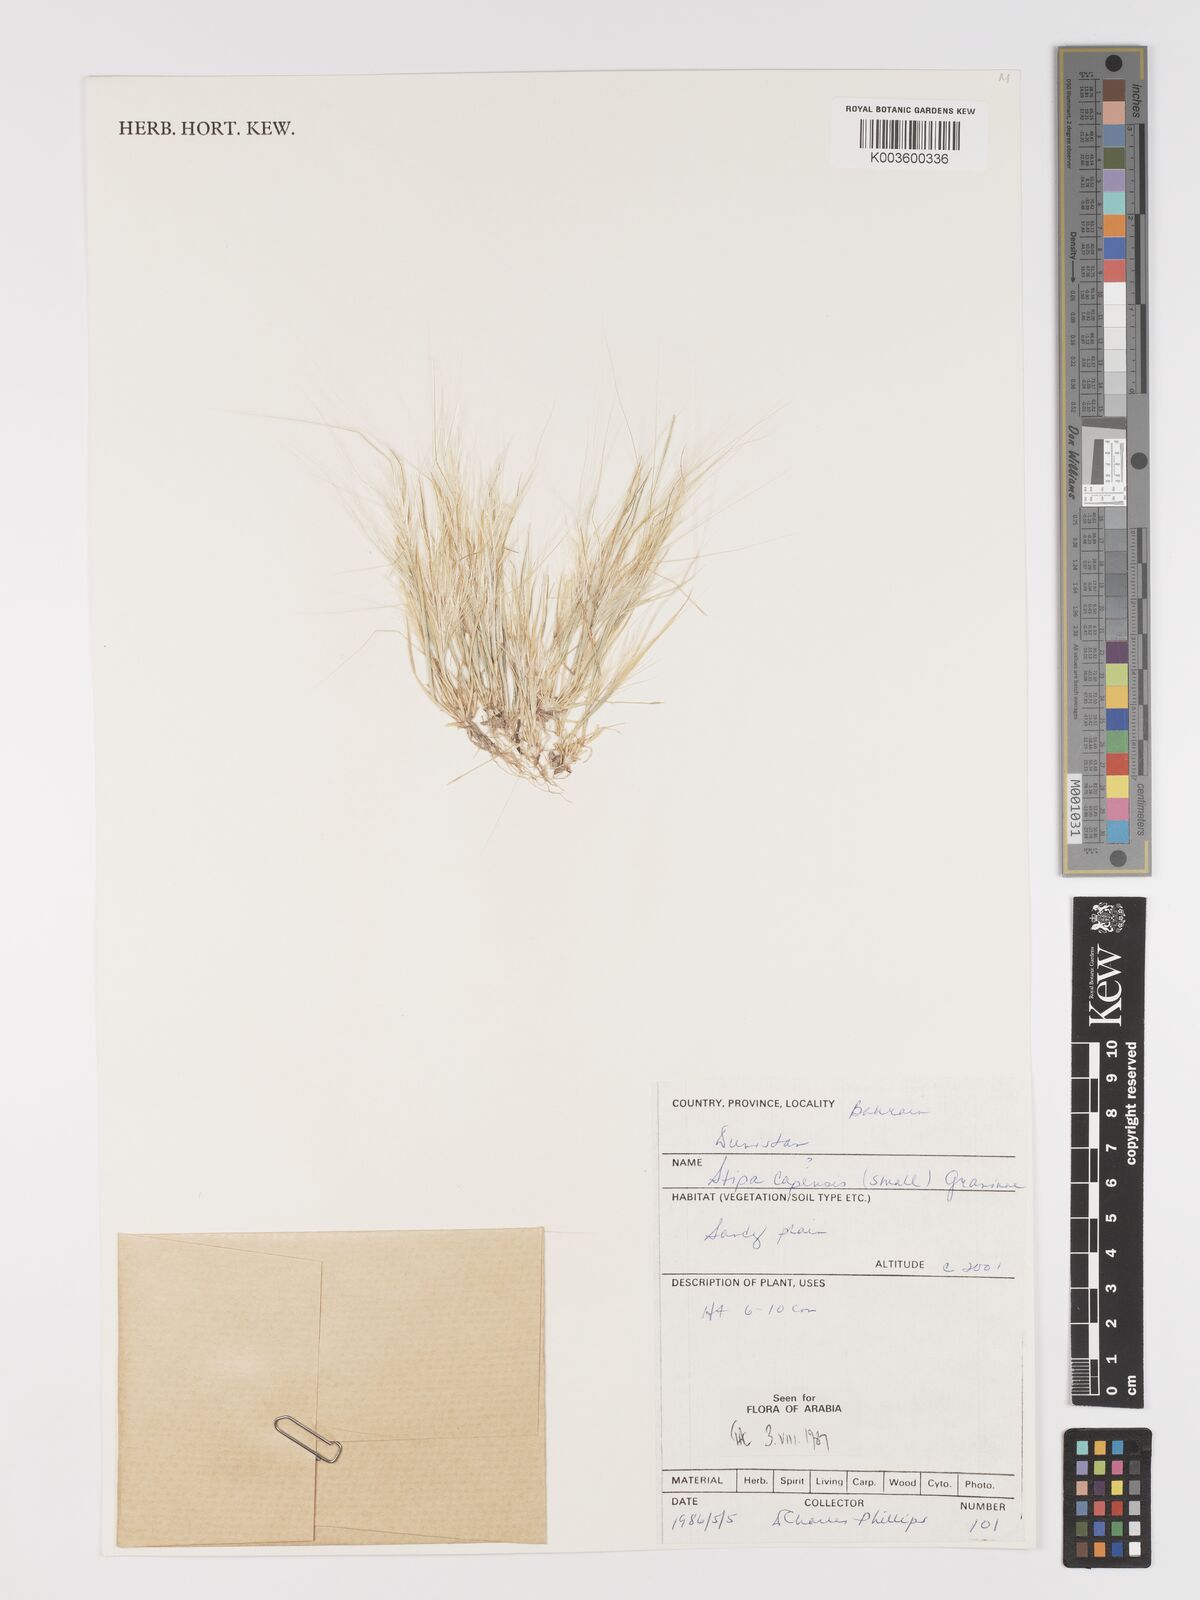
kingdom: Plantae
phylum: Tracheophyta
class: Liliopsida
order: Poales
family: Poaceae
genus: Stipellula
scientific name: Stipellula capensis
